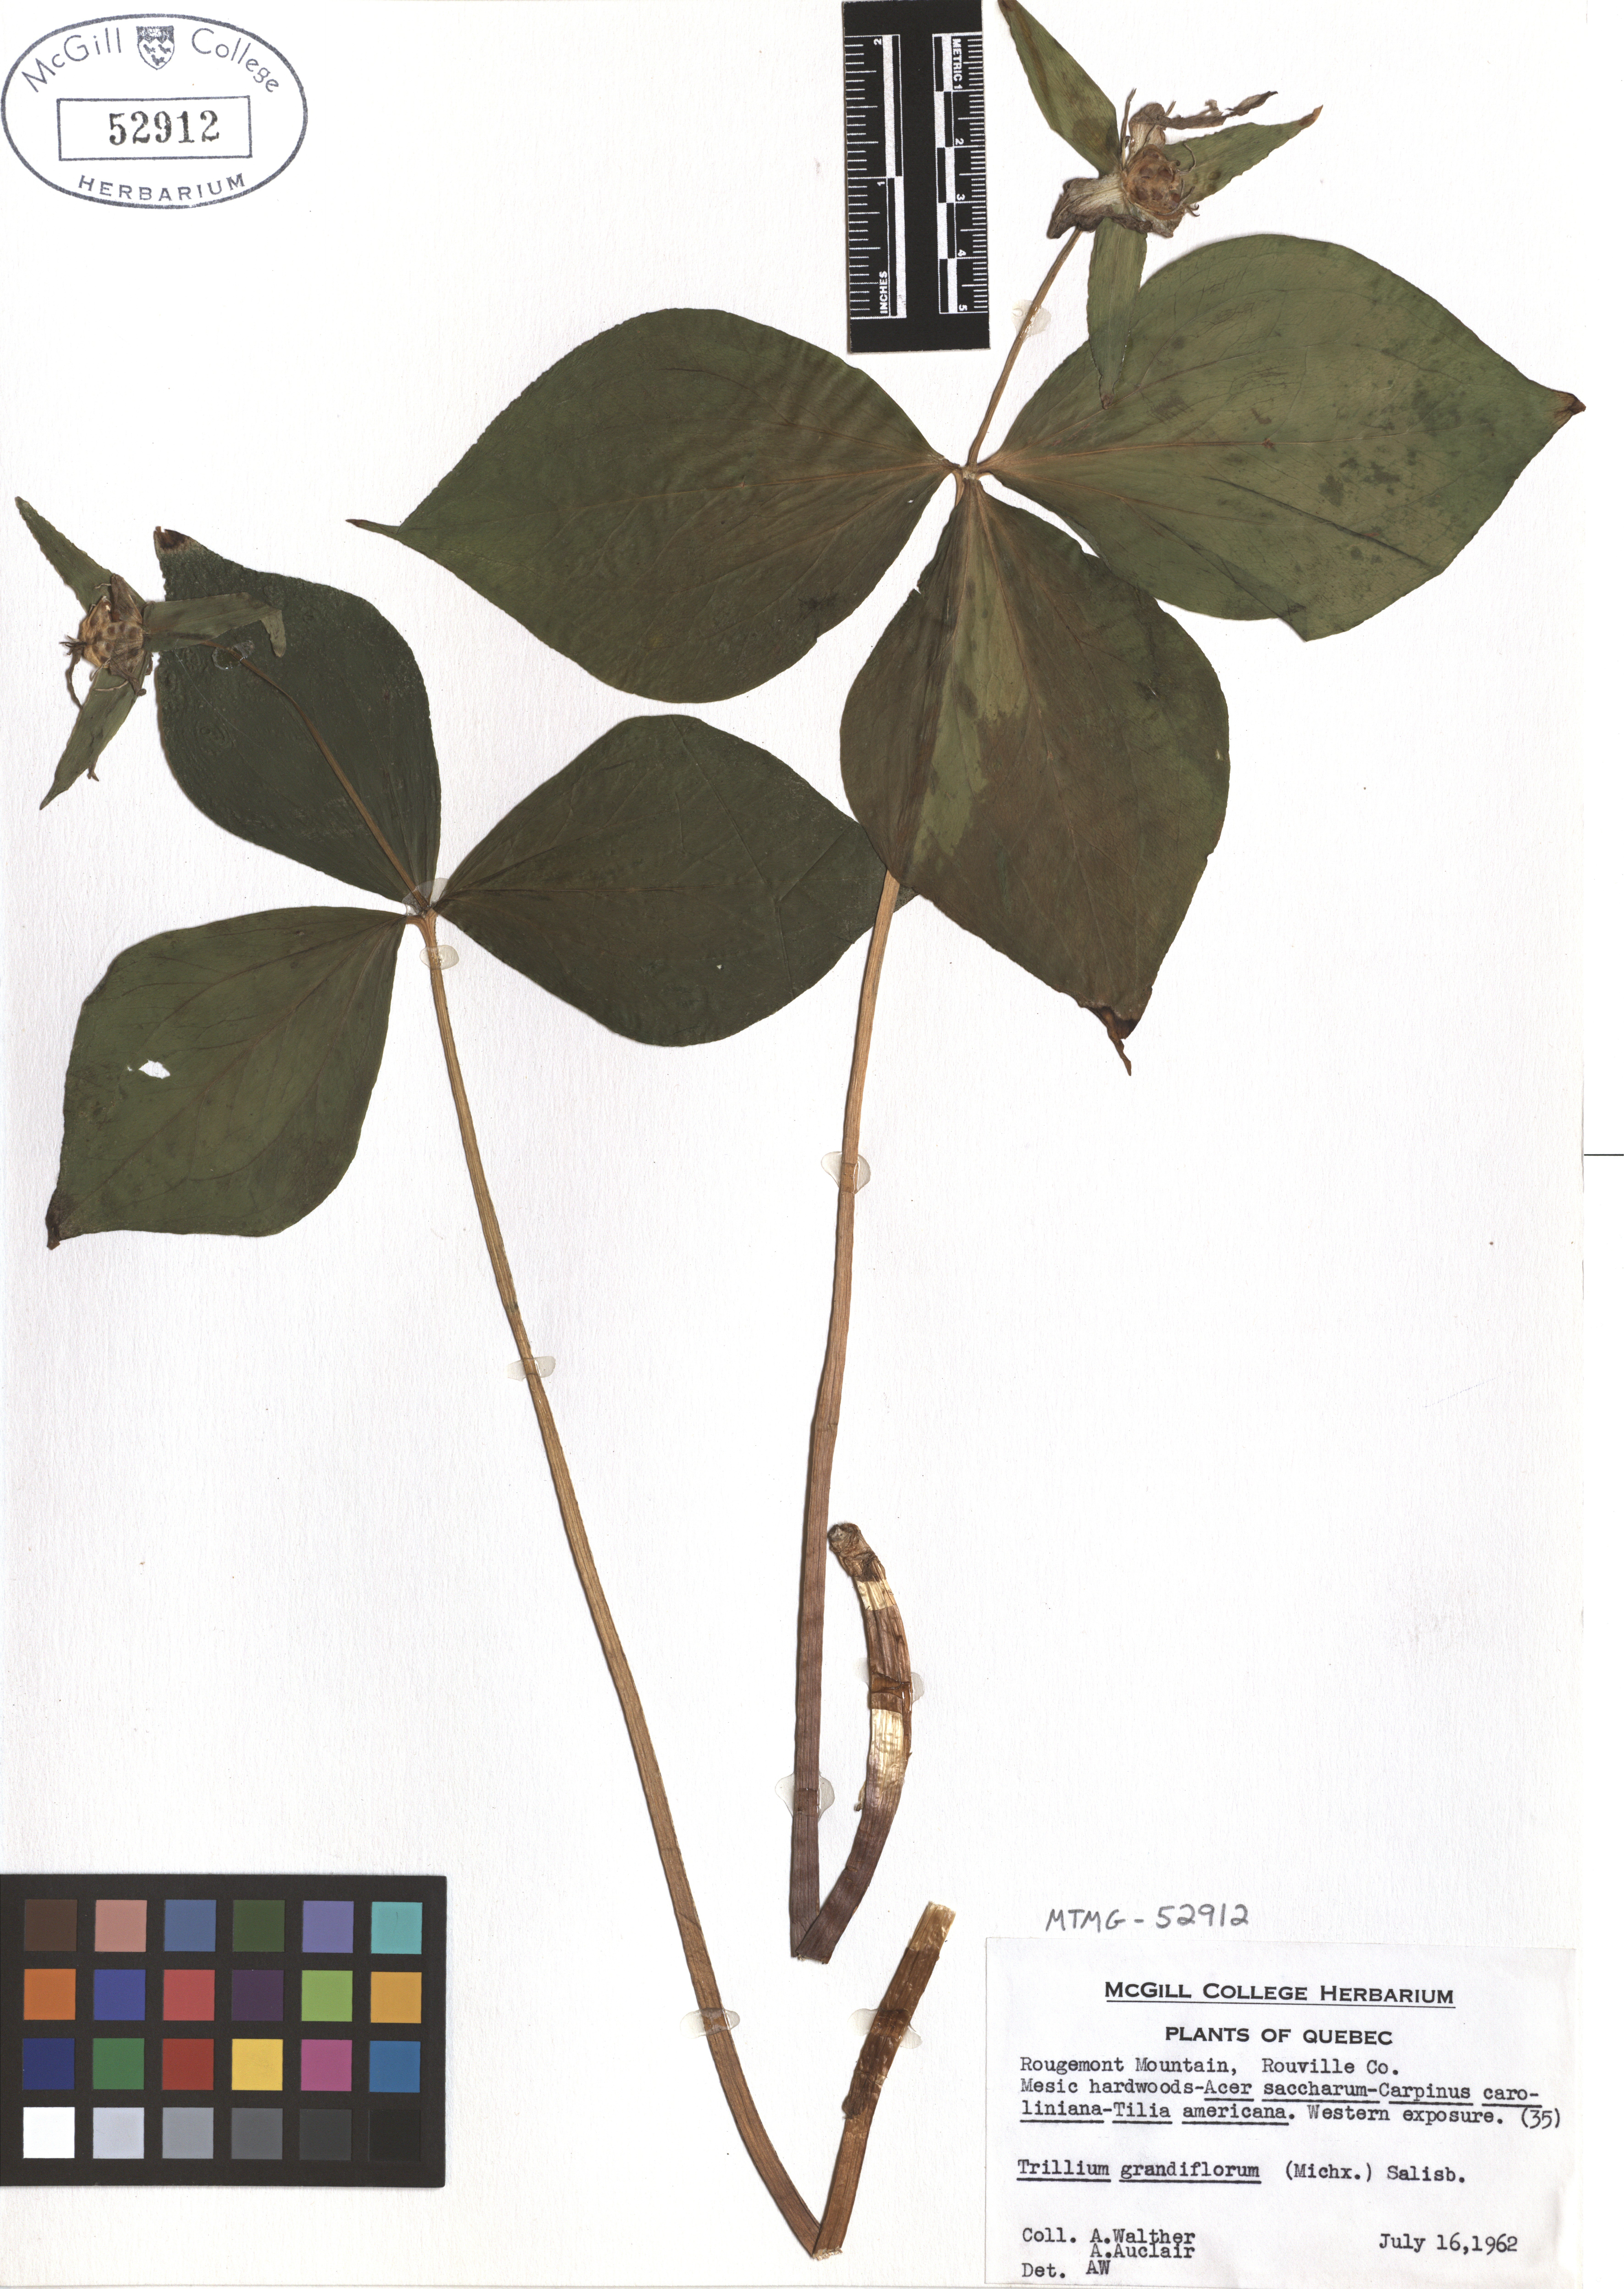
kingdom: Plantae
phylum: Tracheophyta
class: Liliopsida
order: Liliales
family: Melanthiaceae
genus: Trillium
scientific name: Trillium grandiflorum
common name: Great white trillium
